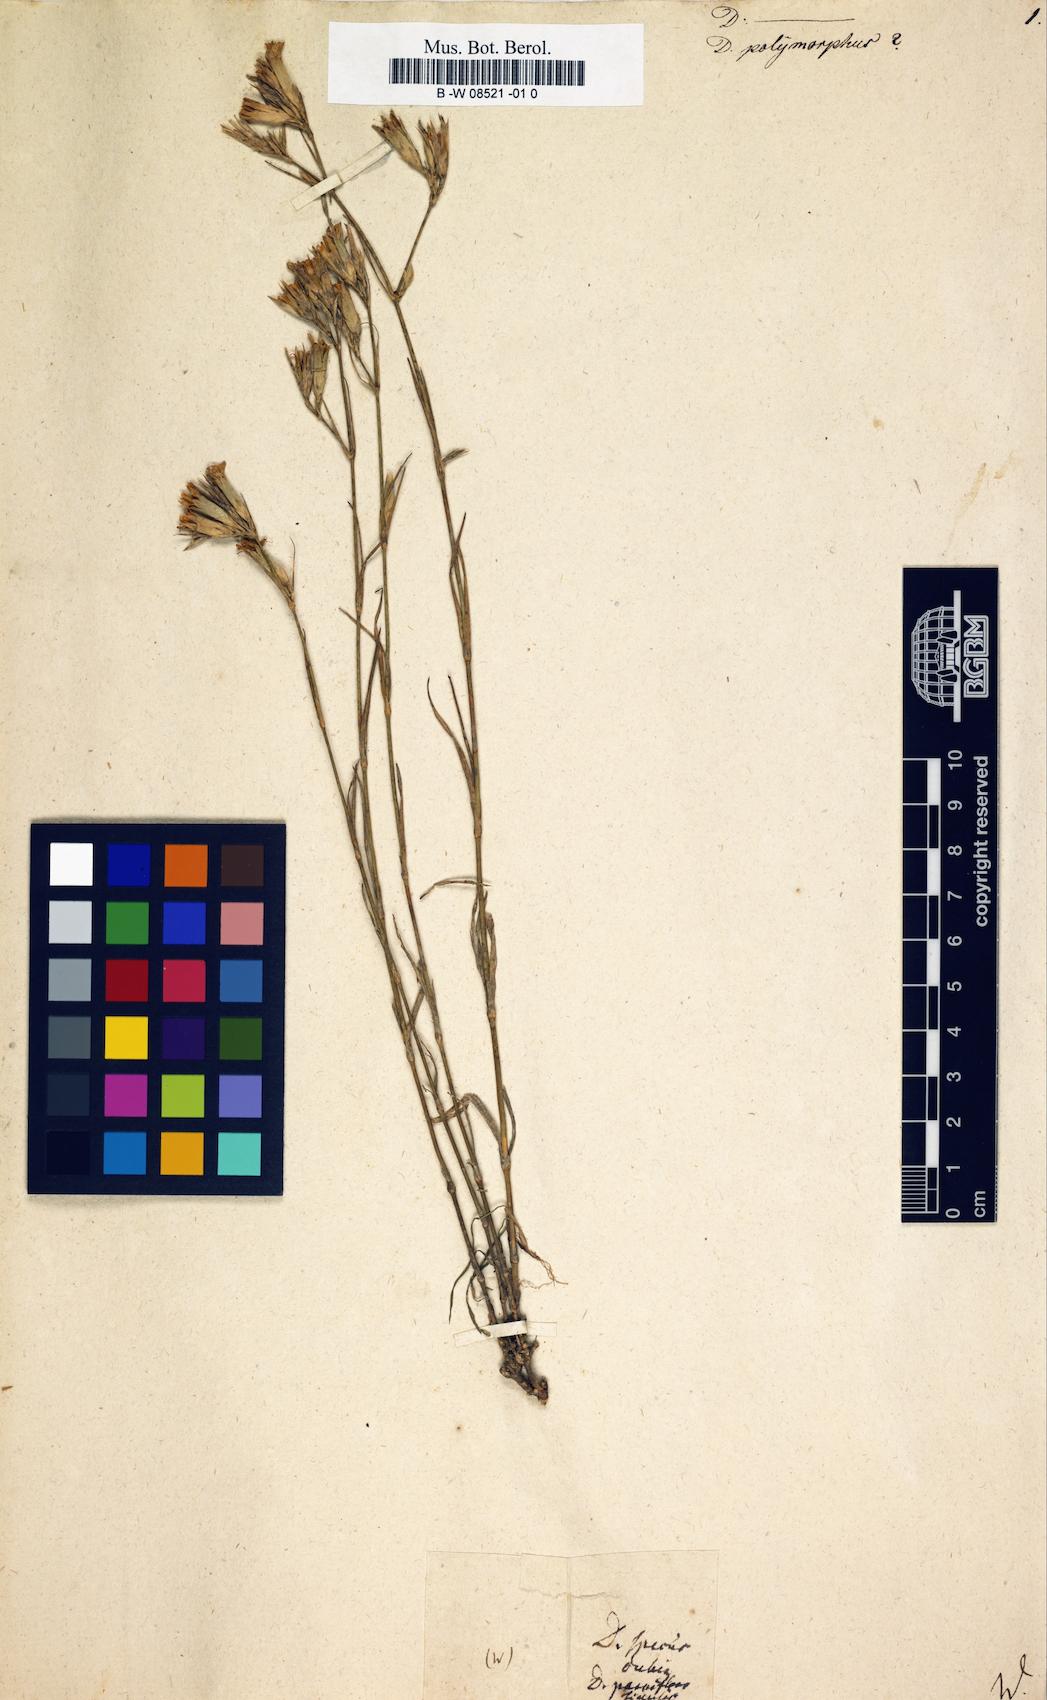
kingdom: Plantae
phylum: Tracheophyta
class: Magnoliopsida
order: Caryophyllales
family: Caryophyllaceae
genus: Dianthus
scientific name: Dianthus polymorphus
